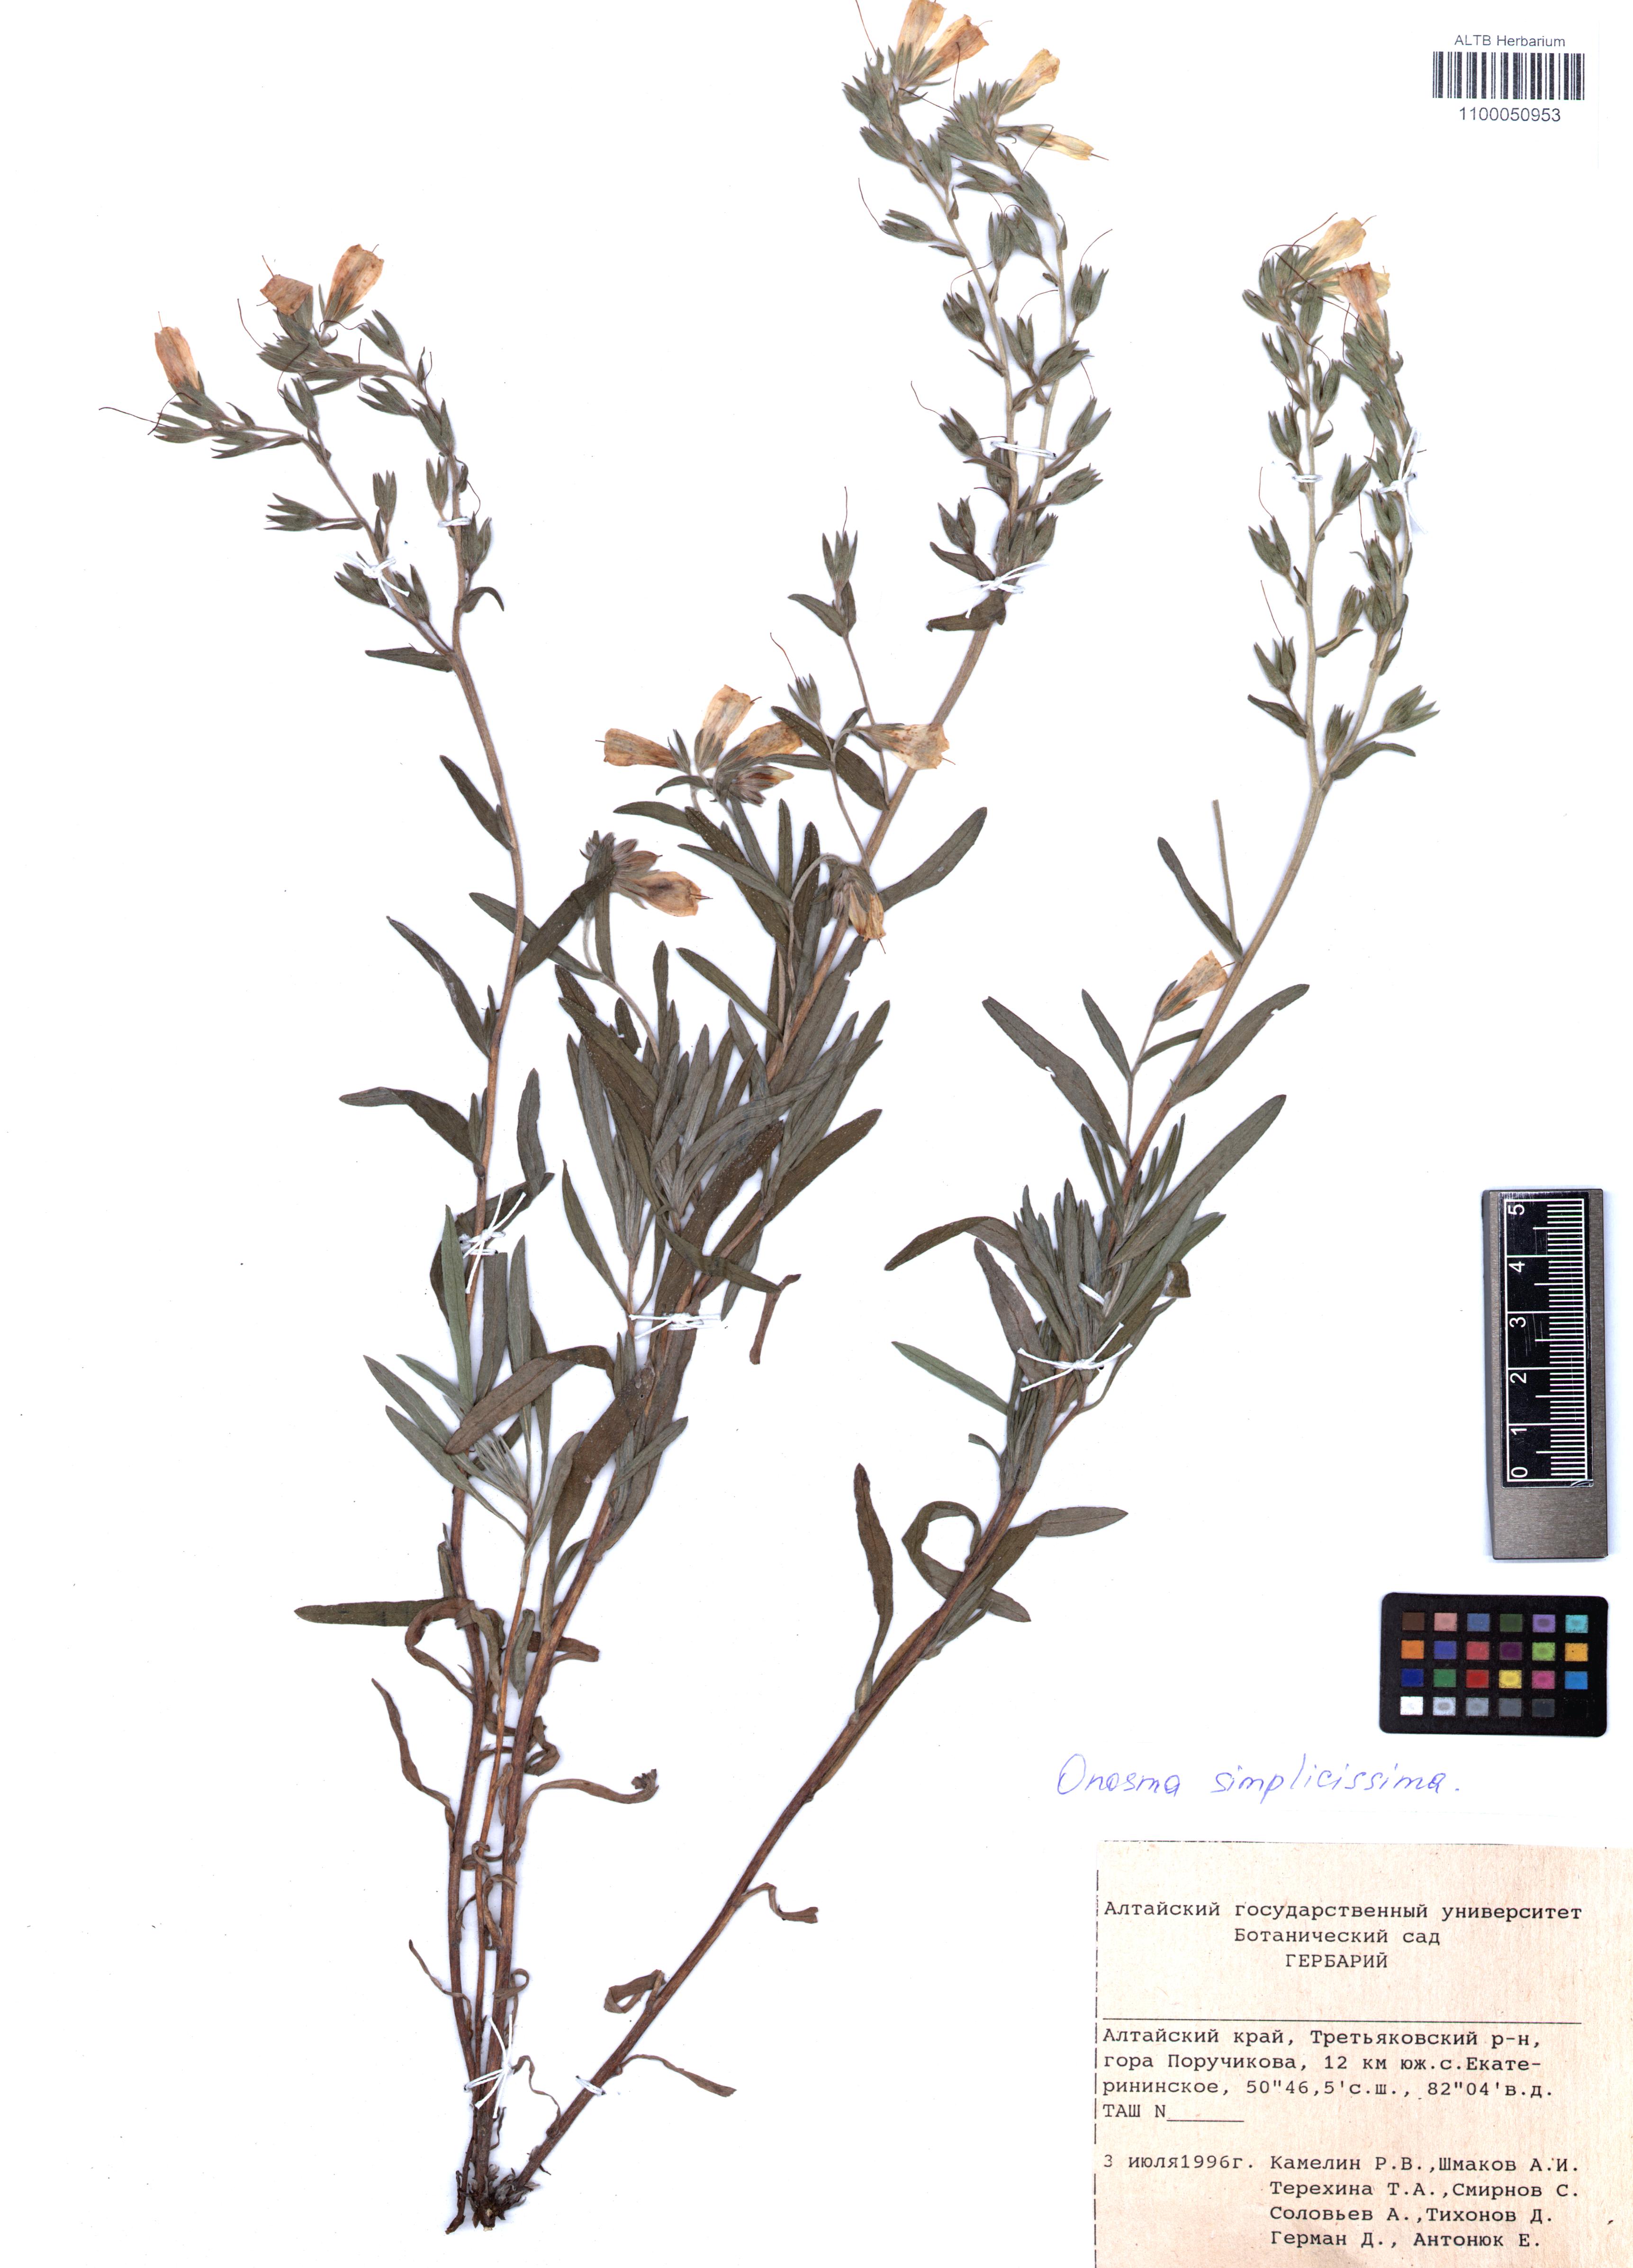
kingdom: Plantae
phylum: Tracheophyta
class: Magnoliopsida
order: Boraginales
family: Boraginaceae
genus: Onosma
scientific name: Onosma simplicissima
